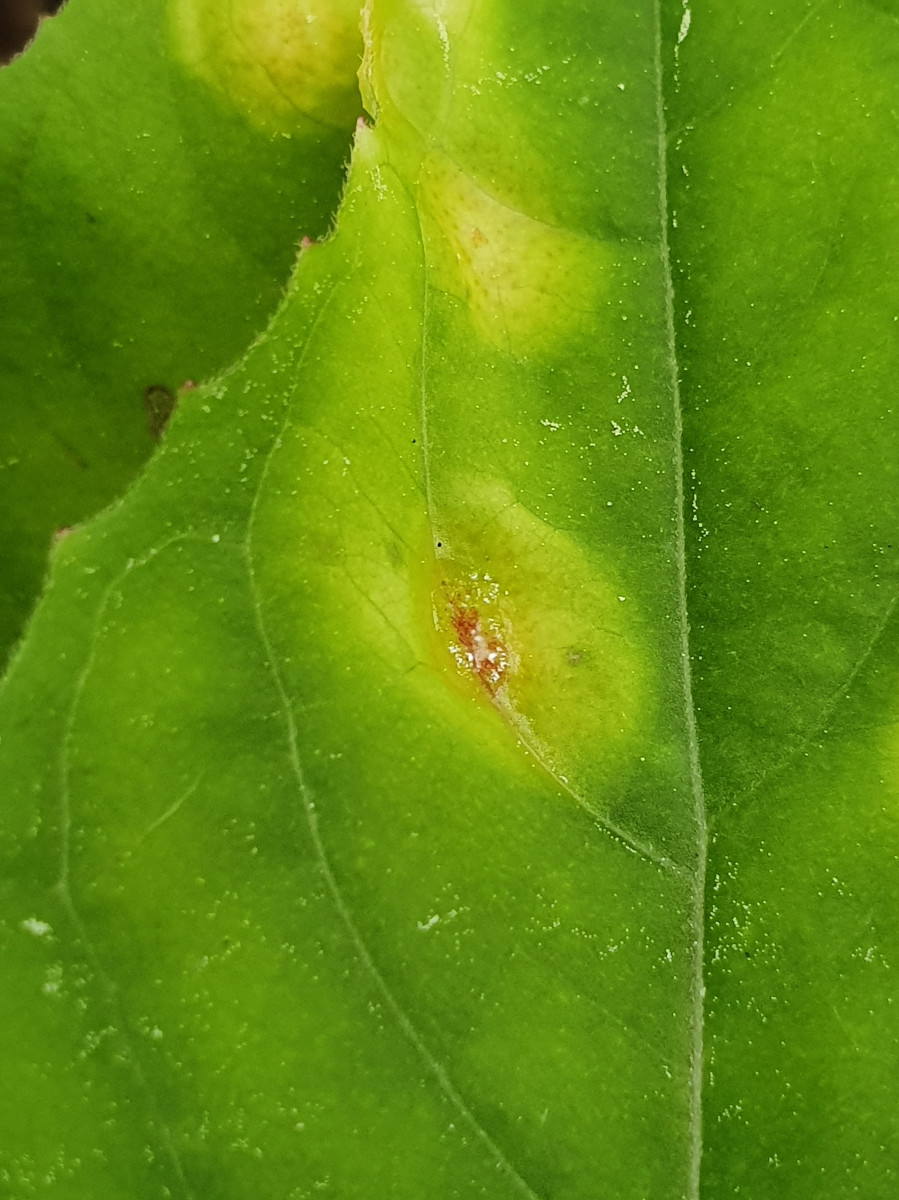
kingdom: Fungi
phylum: Basidiomycota
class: Pucciniomycetes
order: Pucciniales
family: Pucciniaceae
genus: Puccinia
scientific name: Puccinia circaeae-caricis
